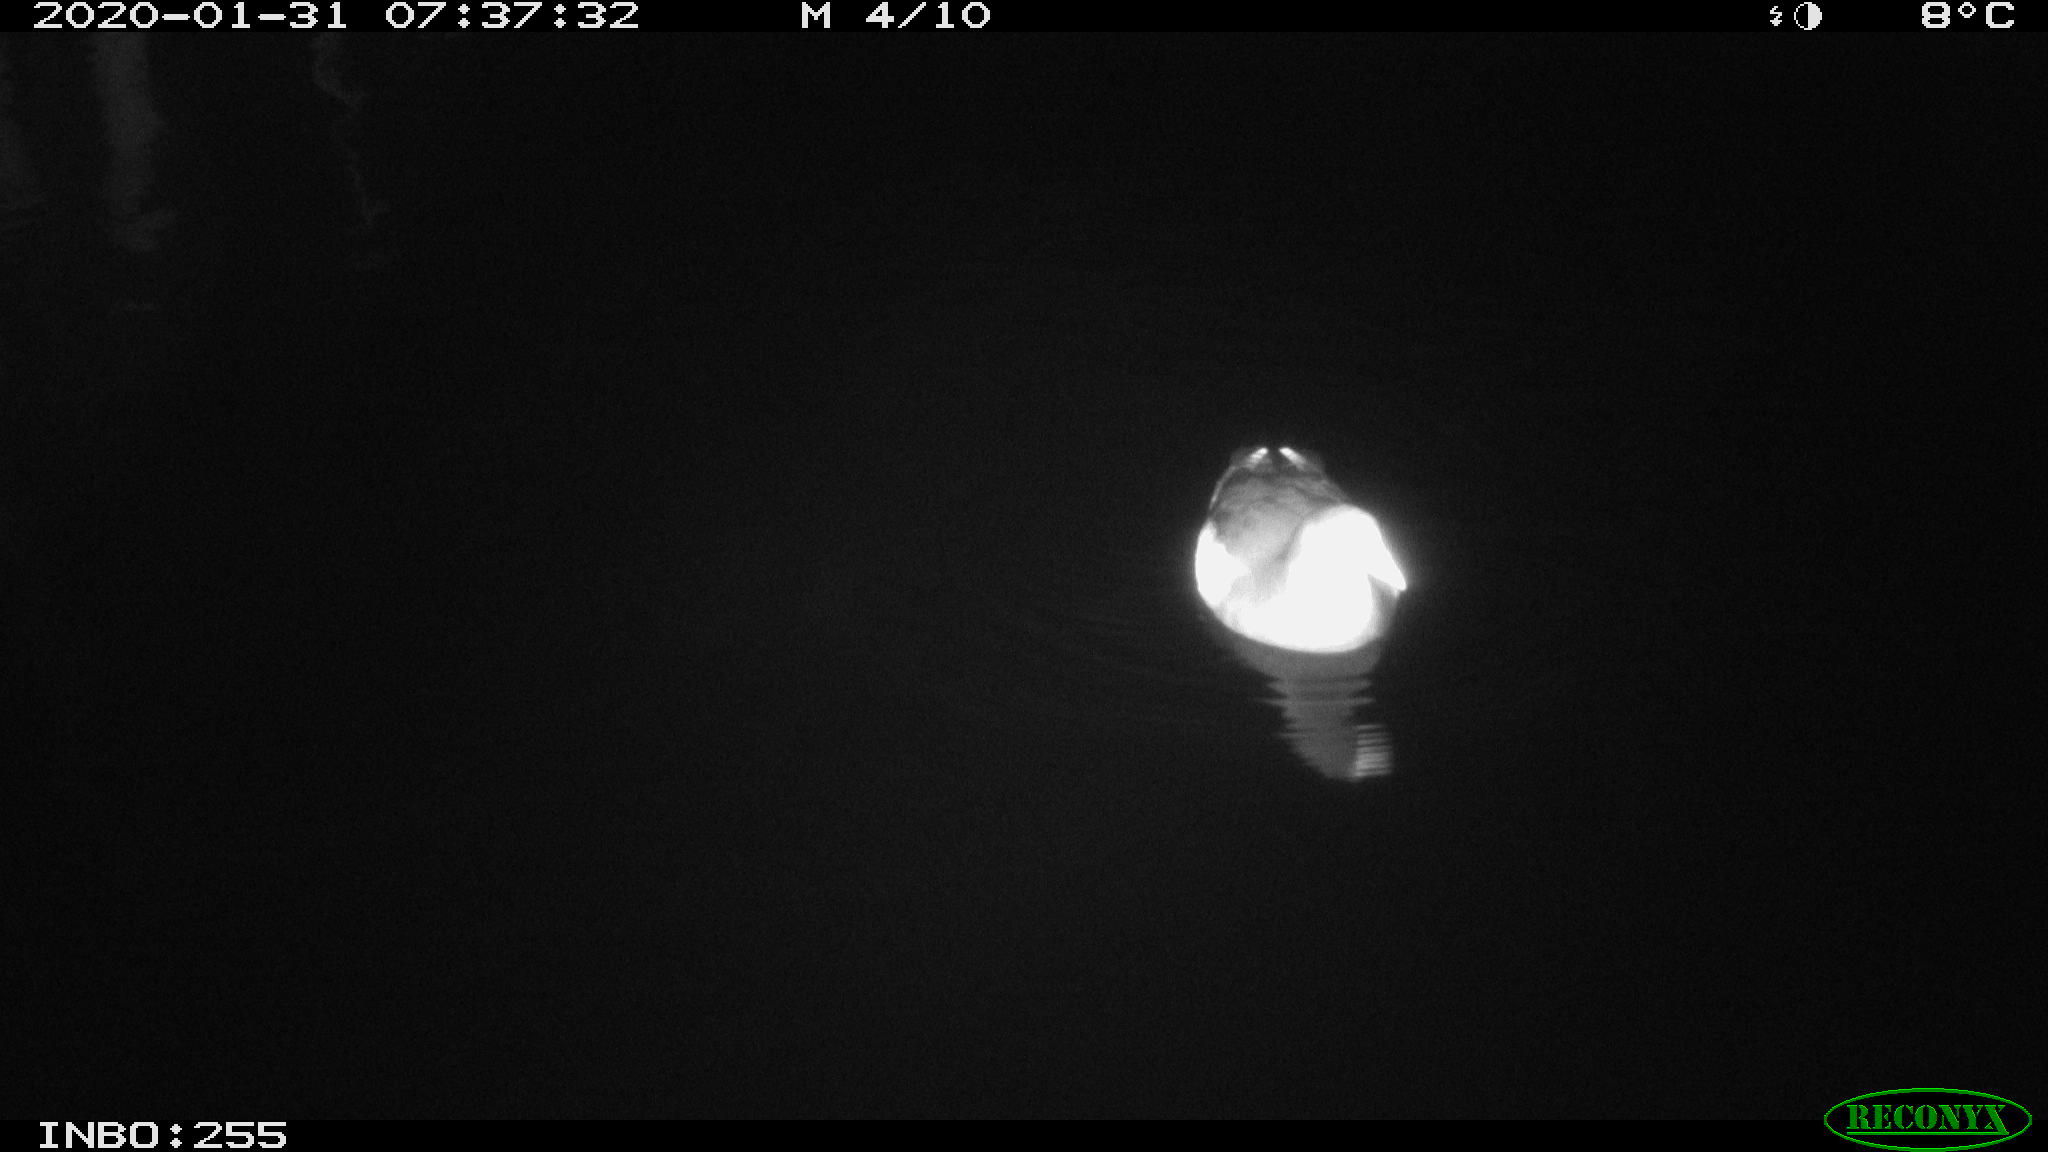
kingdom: Animalia
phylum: Chordata
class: Aves
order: Gruiformes
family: Rallidae
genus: Gallinula
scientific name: Gallinula chloropus
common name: Common moorhen
